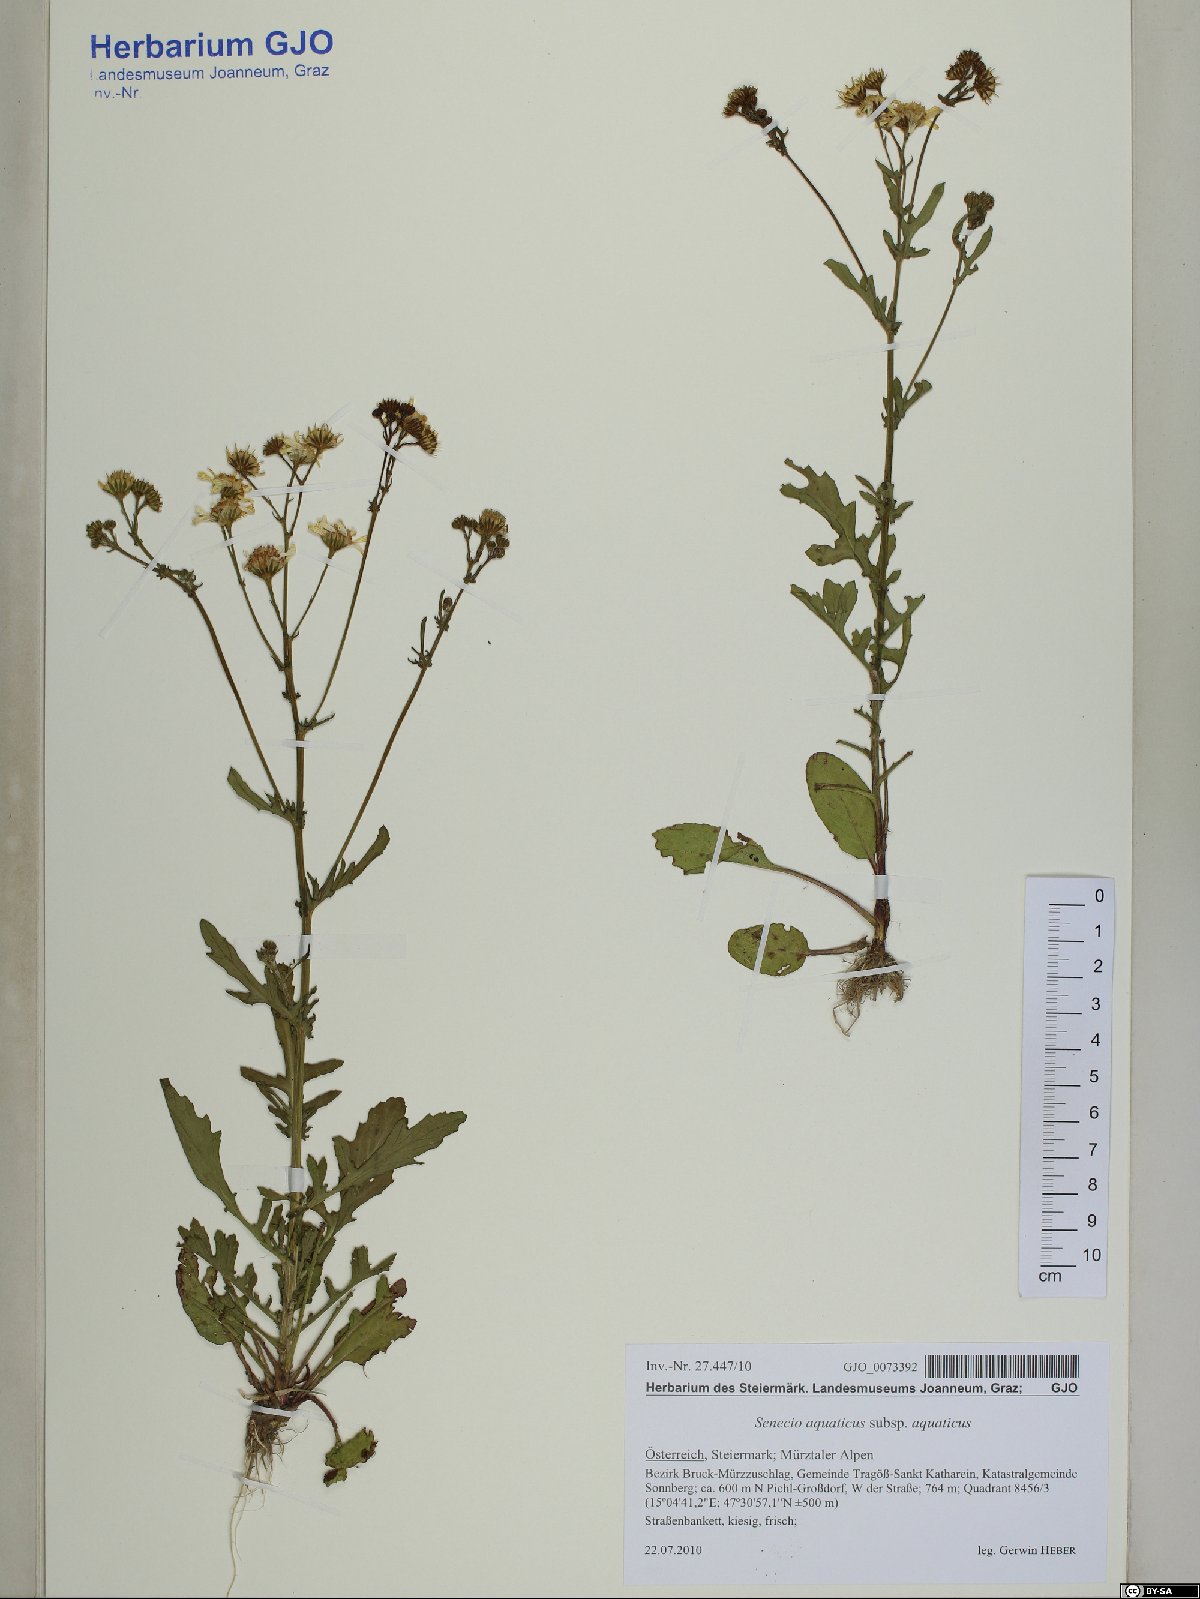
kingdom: Plantae
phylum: Tracheophyta
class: Magnoliopsida
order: Asterales
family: Asteraceae
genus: Jacobaea
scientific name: Jacobaea aquatica
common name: Water ragwort
